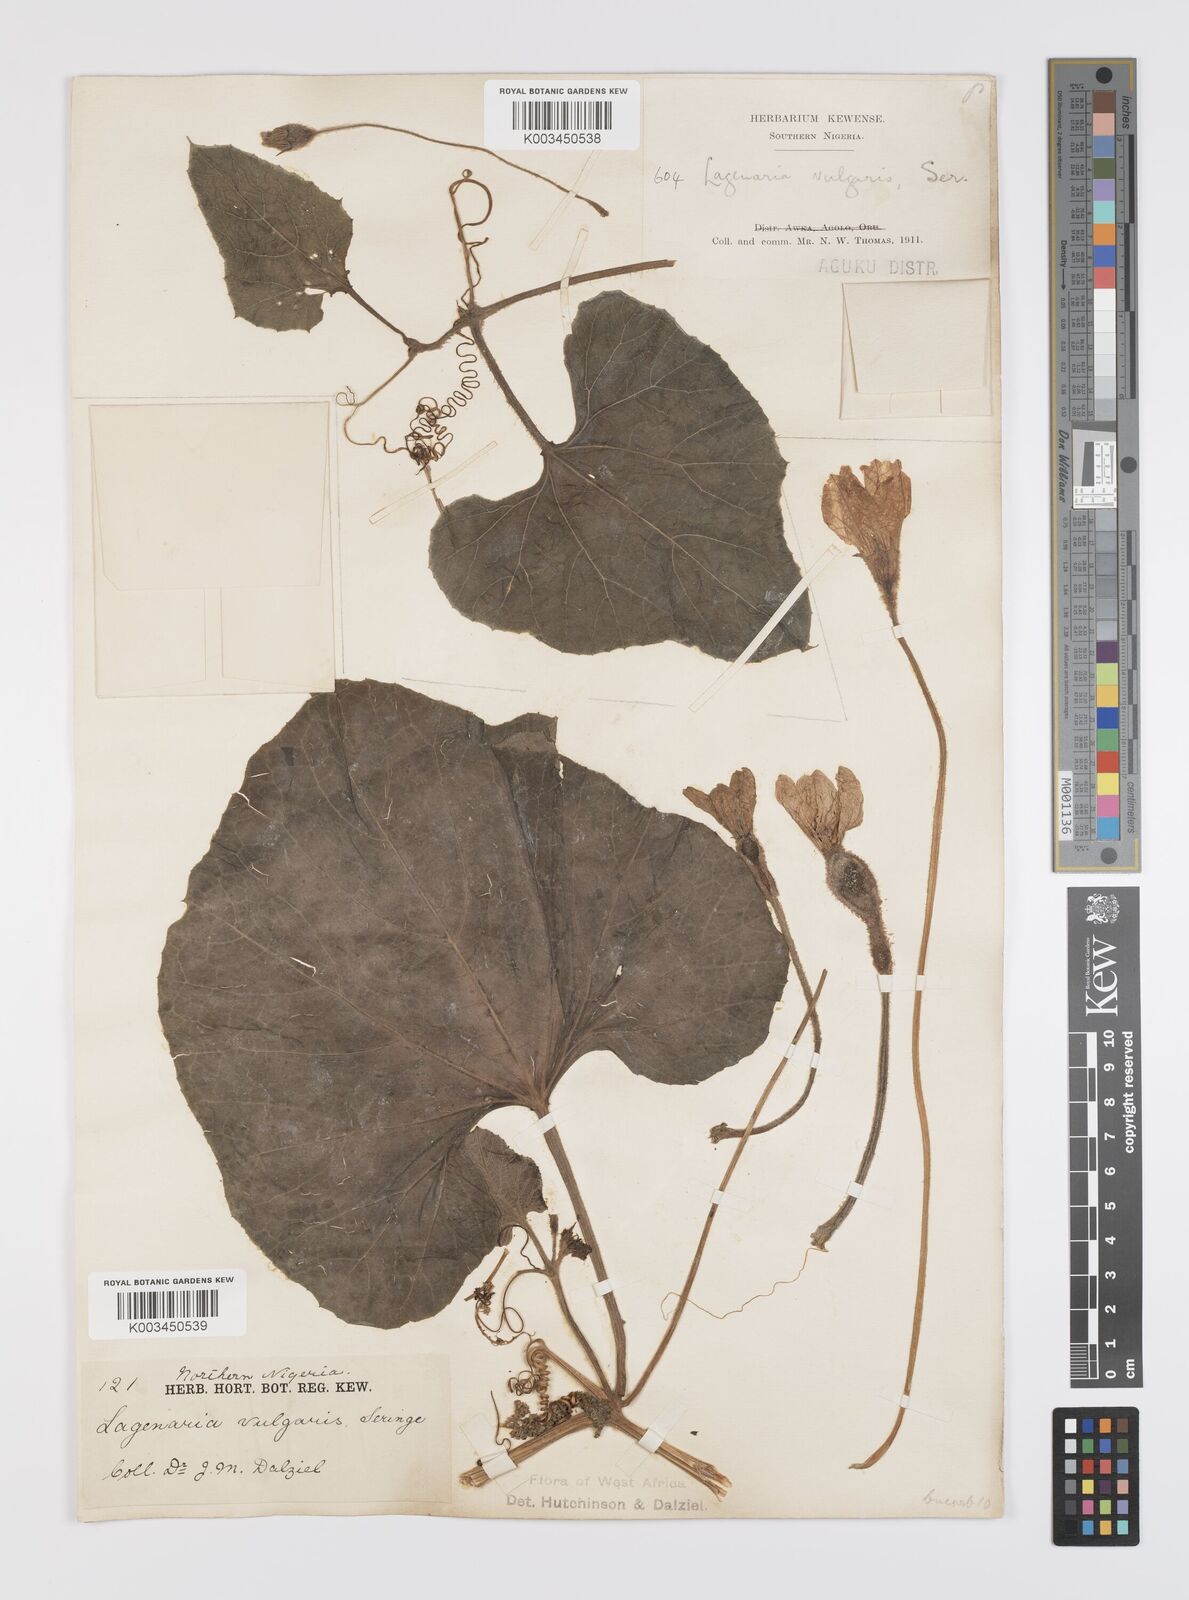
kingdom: Plantae
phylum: Tracheophyta
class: Magnoliopsida
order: Cucurbitales
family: Cucurbitaceae
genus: Lagenaria
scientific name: Lagenaria siceraria
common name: Bottle gourd
